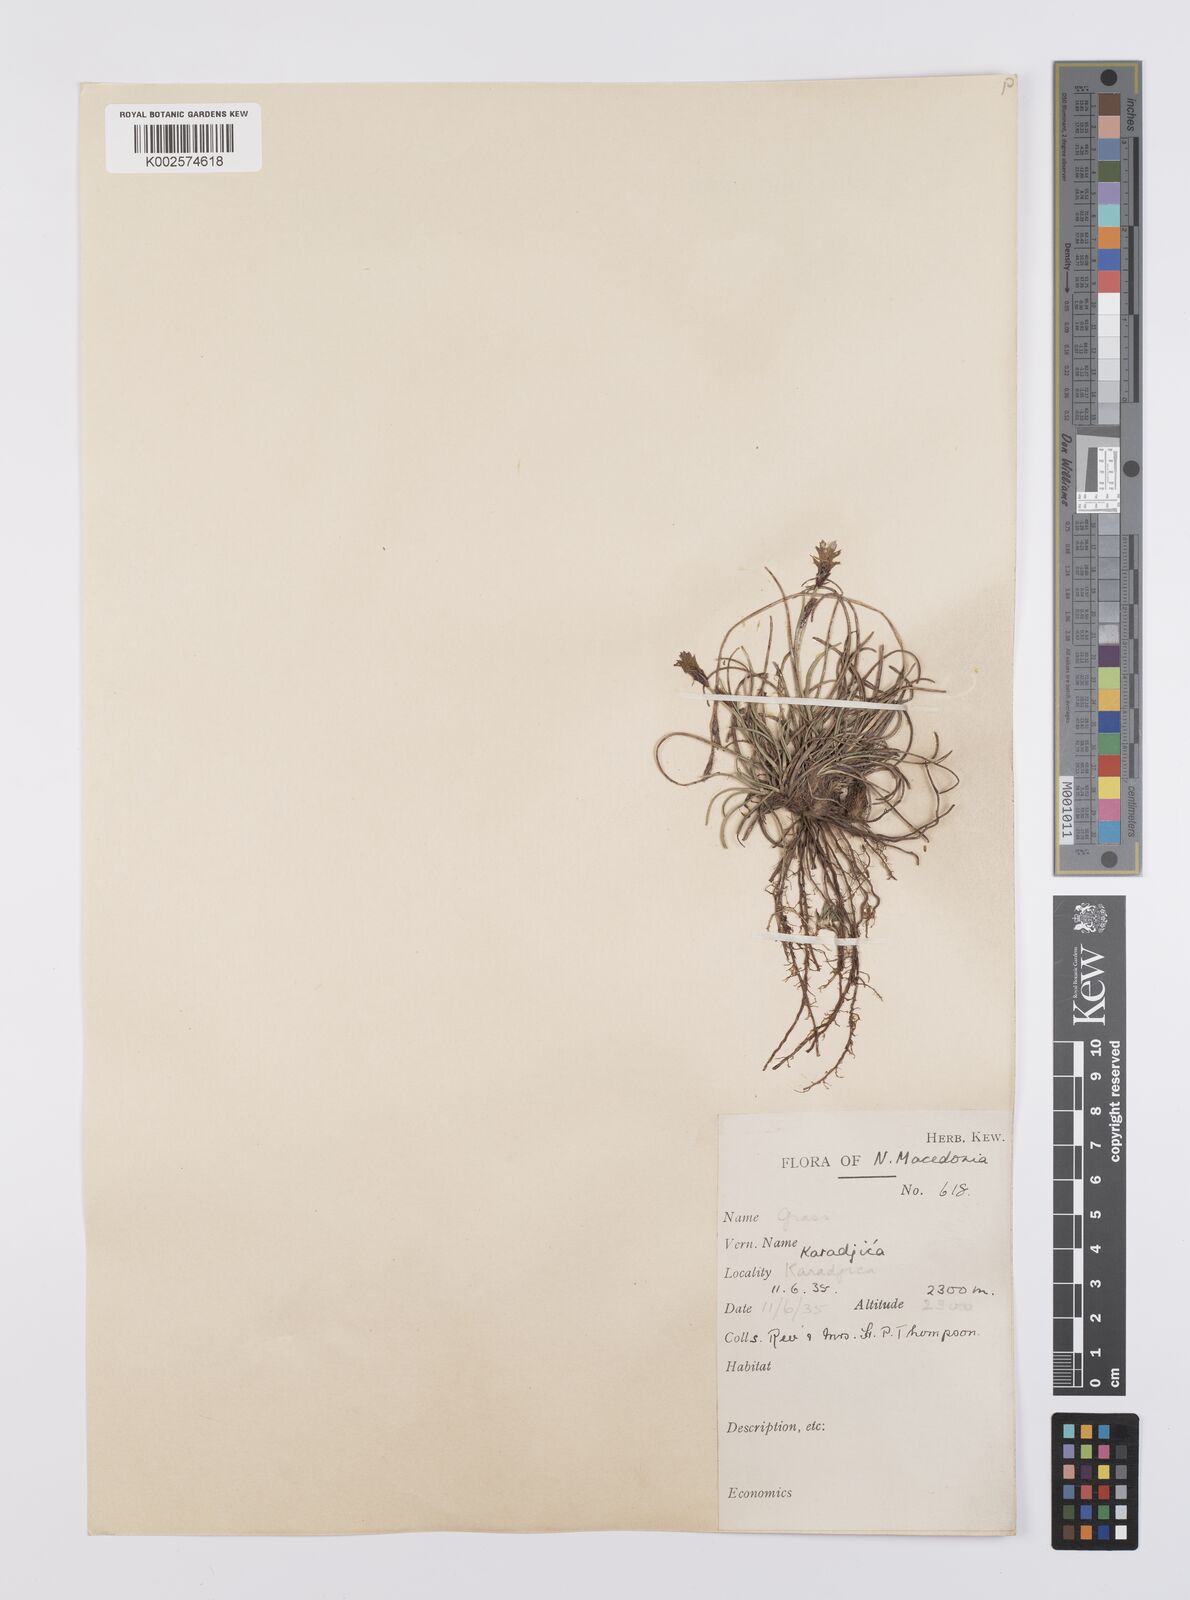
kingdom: Plantae
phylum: Tracheophyta
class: Liliopsida
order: Poales
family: Cyperaceae
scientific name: Cyperaceae
